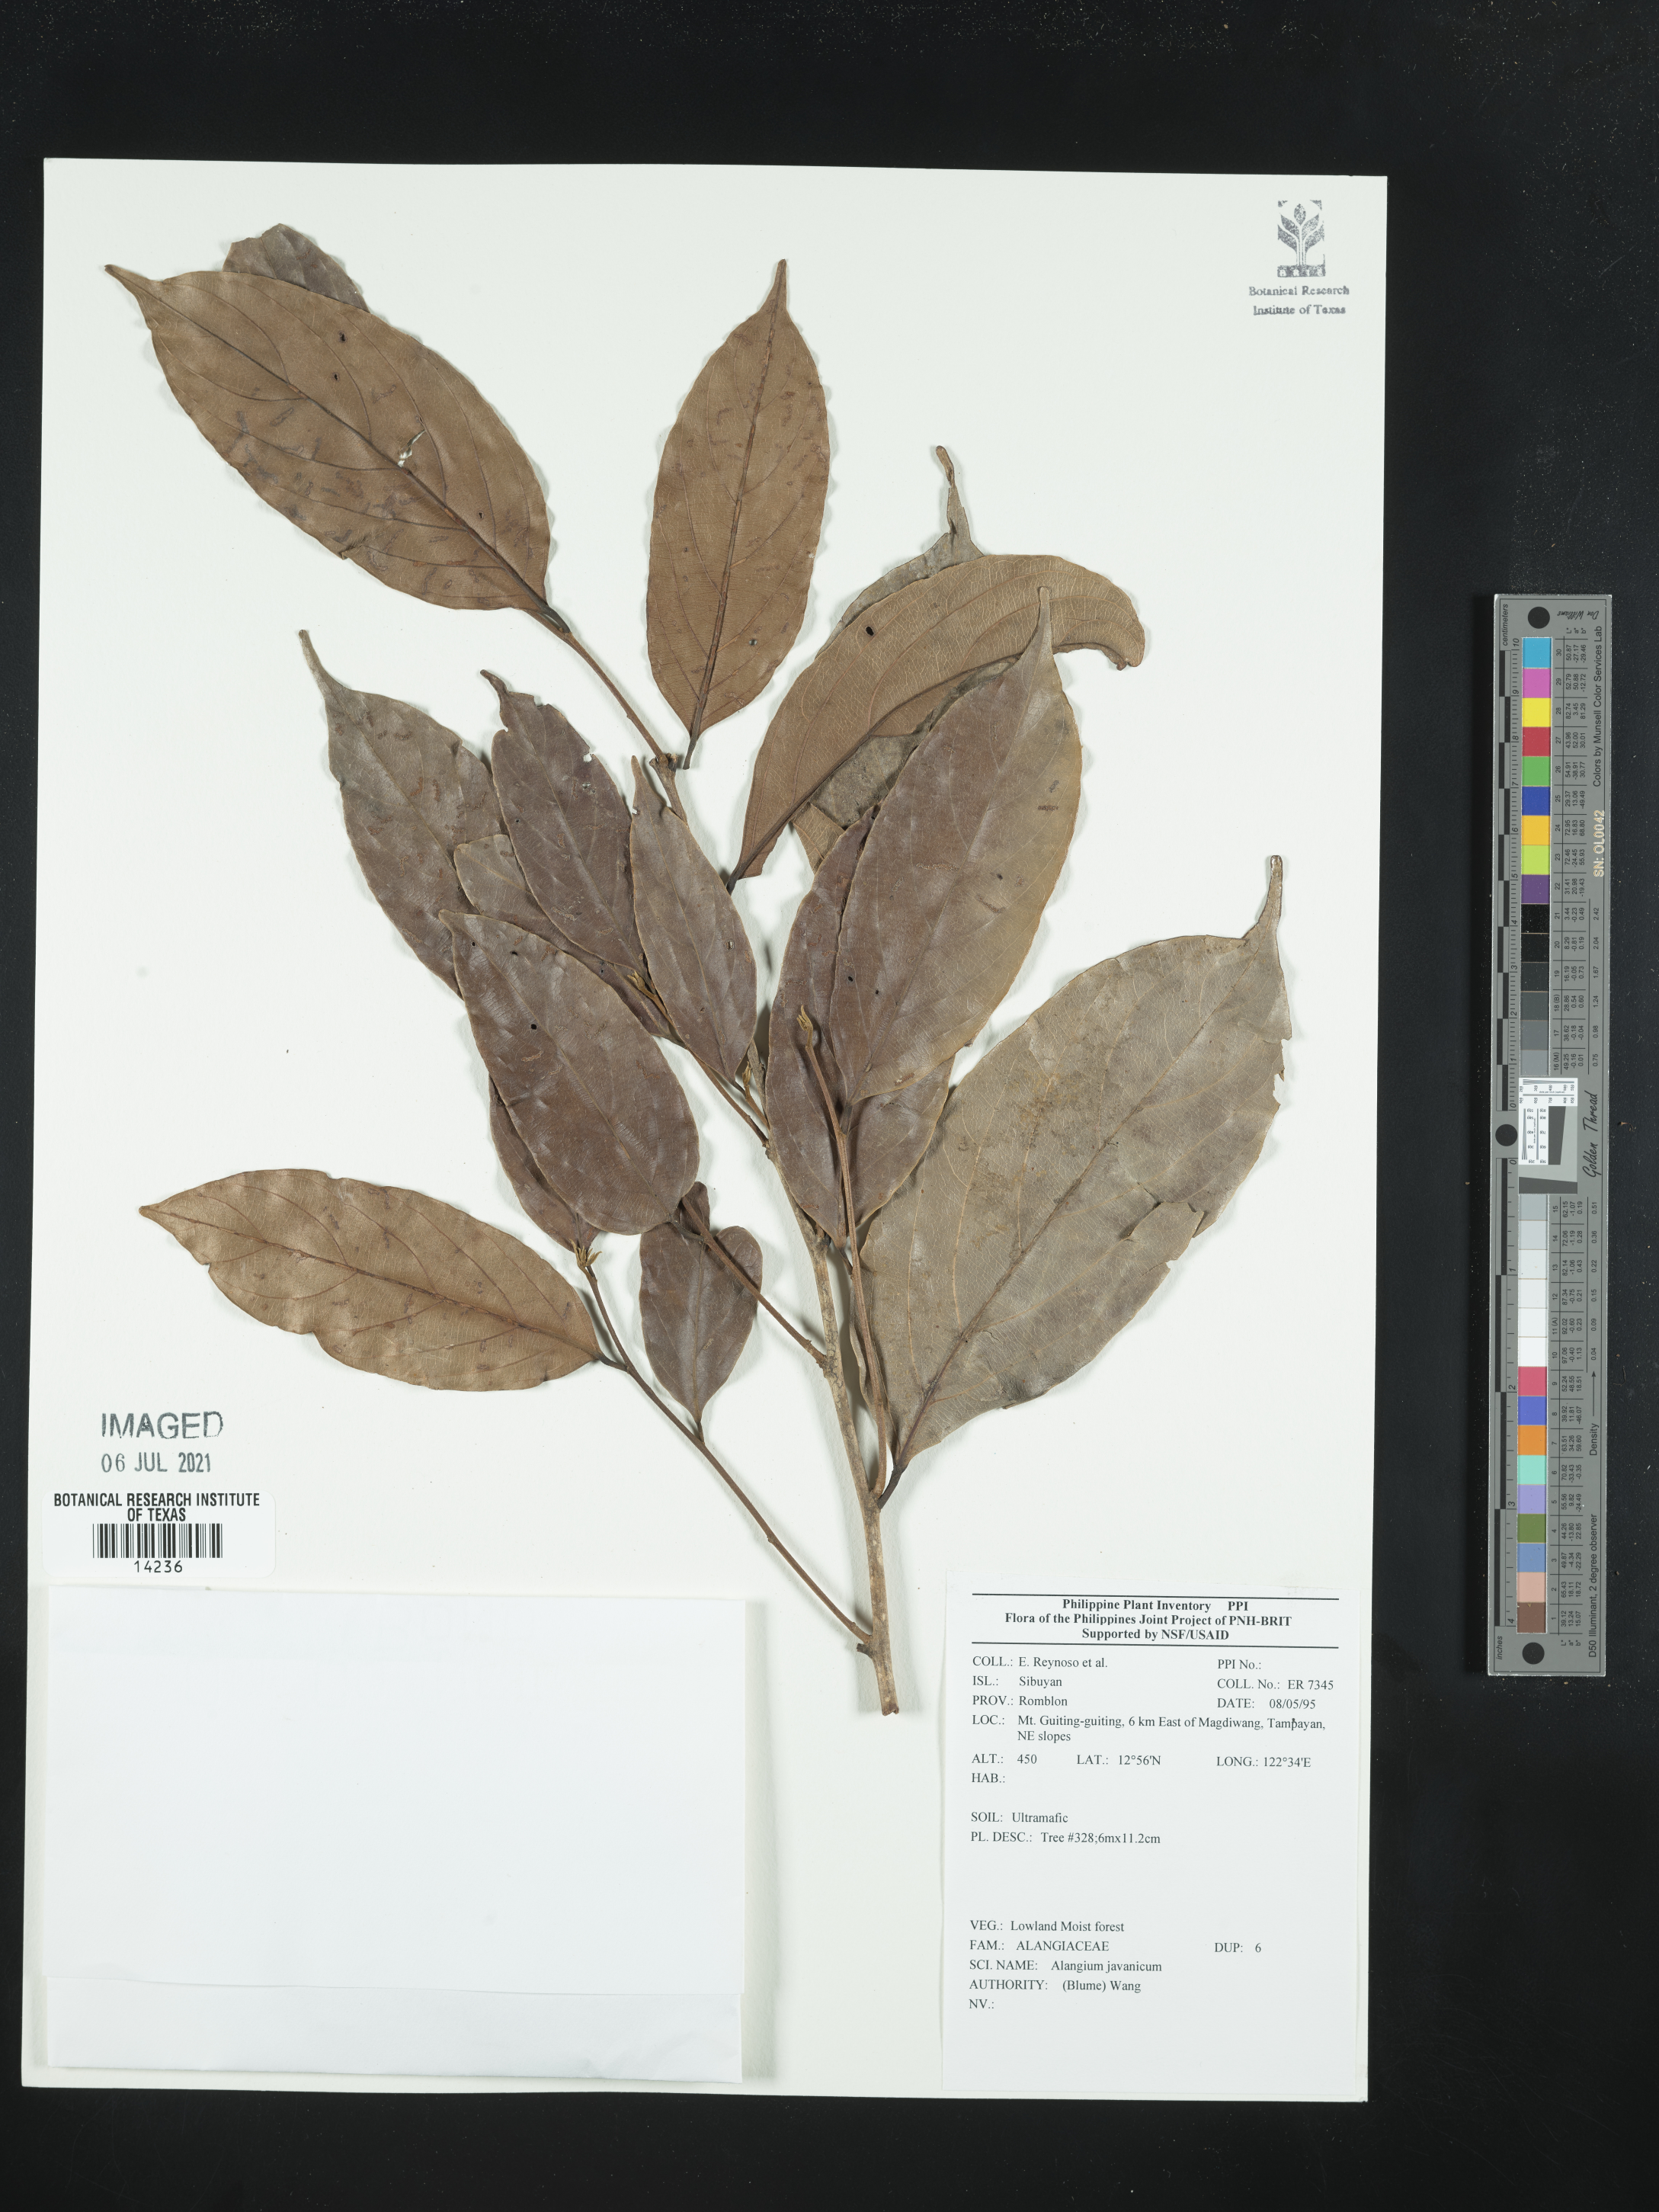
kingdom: Plantae
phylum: Tracheophyta
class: Magnoliopsida
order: Cornales
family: Cornaceae
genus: Alangium
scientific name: Alangium javanicum
